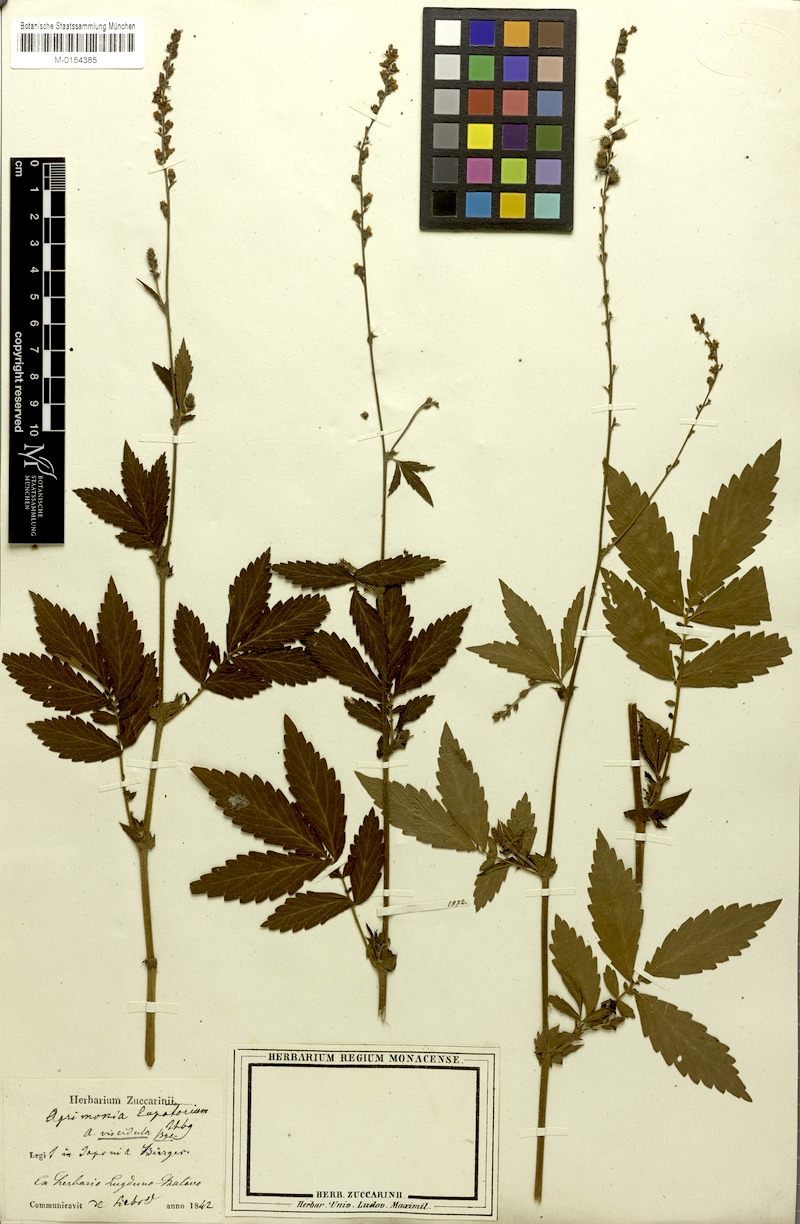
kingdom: Plantae
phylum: Tracheophyta
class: Magnoliopsida
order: Rosales
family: Rosaceae
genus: Agrimonia
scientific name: Agrimonia pilosa
